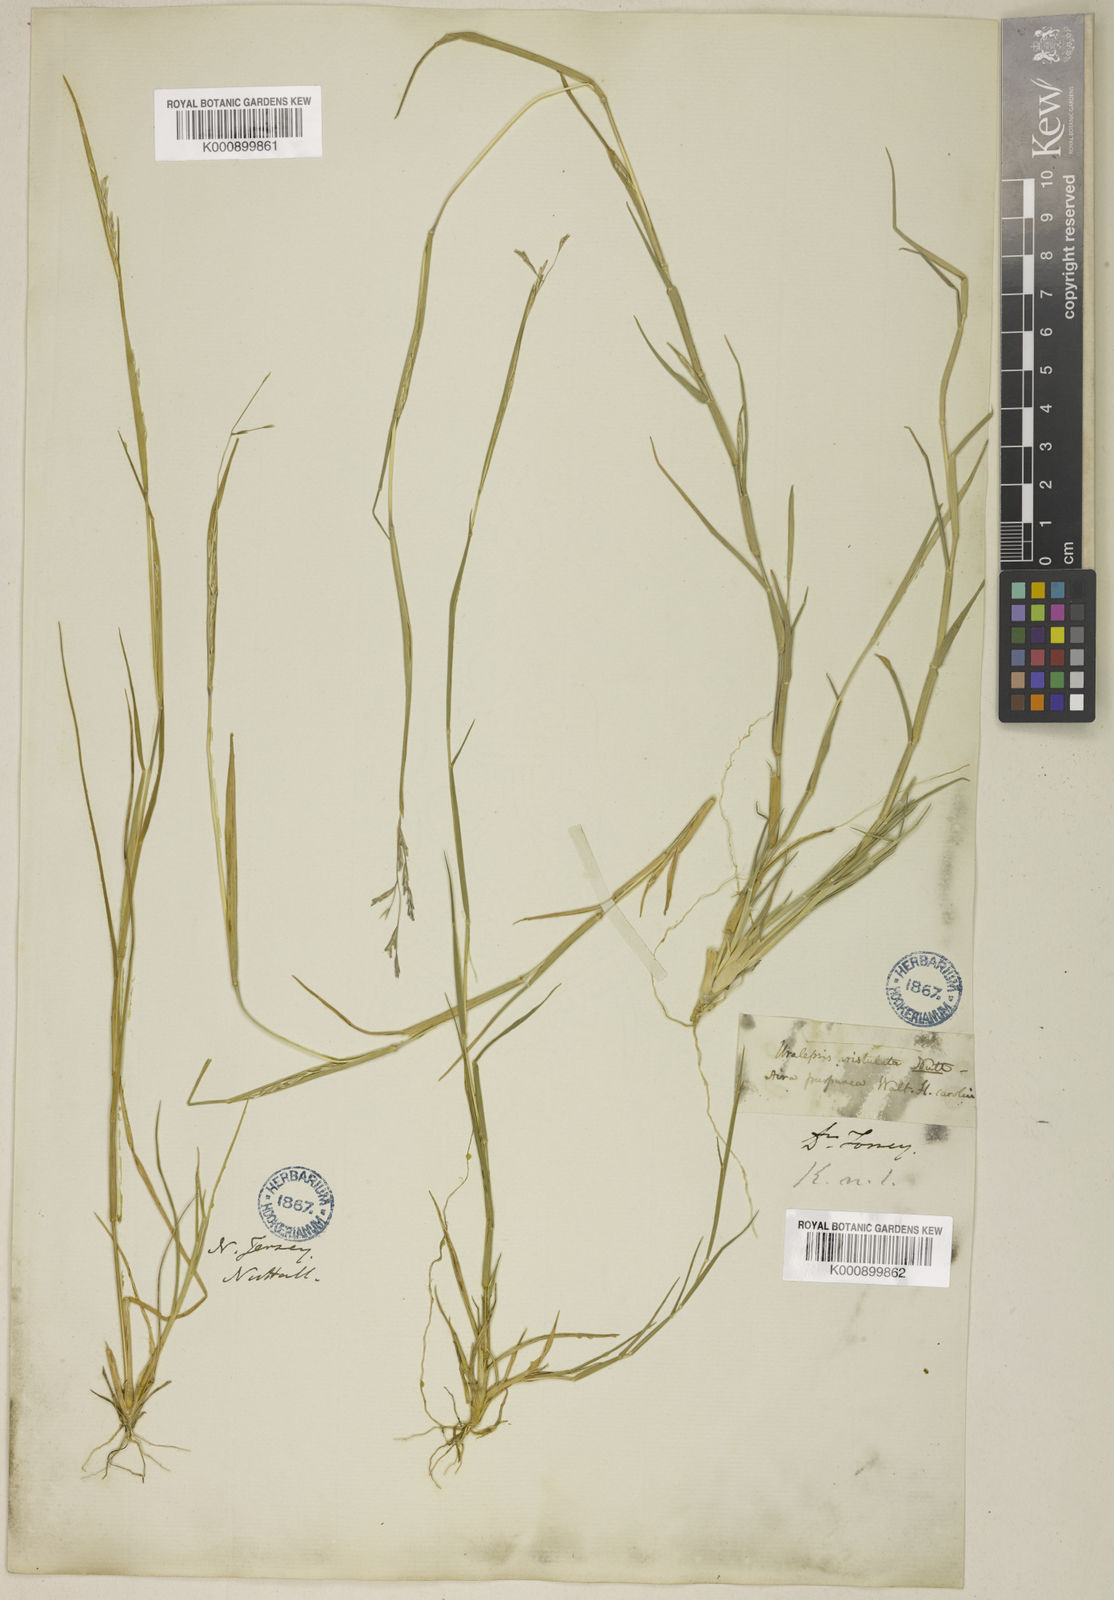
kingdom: Plantae
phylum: Tracheophyta
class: Liliopsida
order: Poales
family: Poaceae
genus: Triplasis
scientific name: Triplasis purpurea
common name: Purple sand grass
